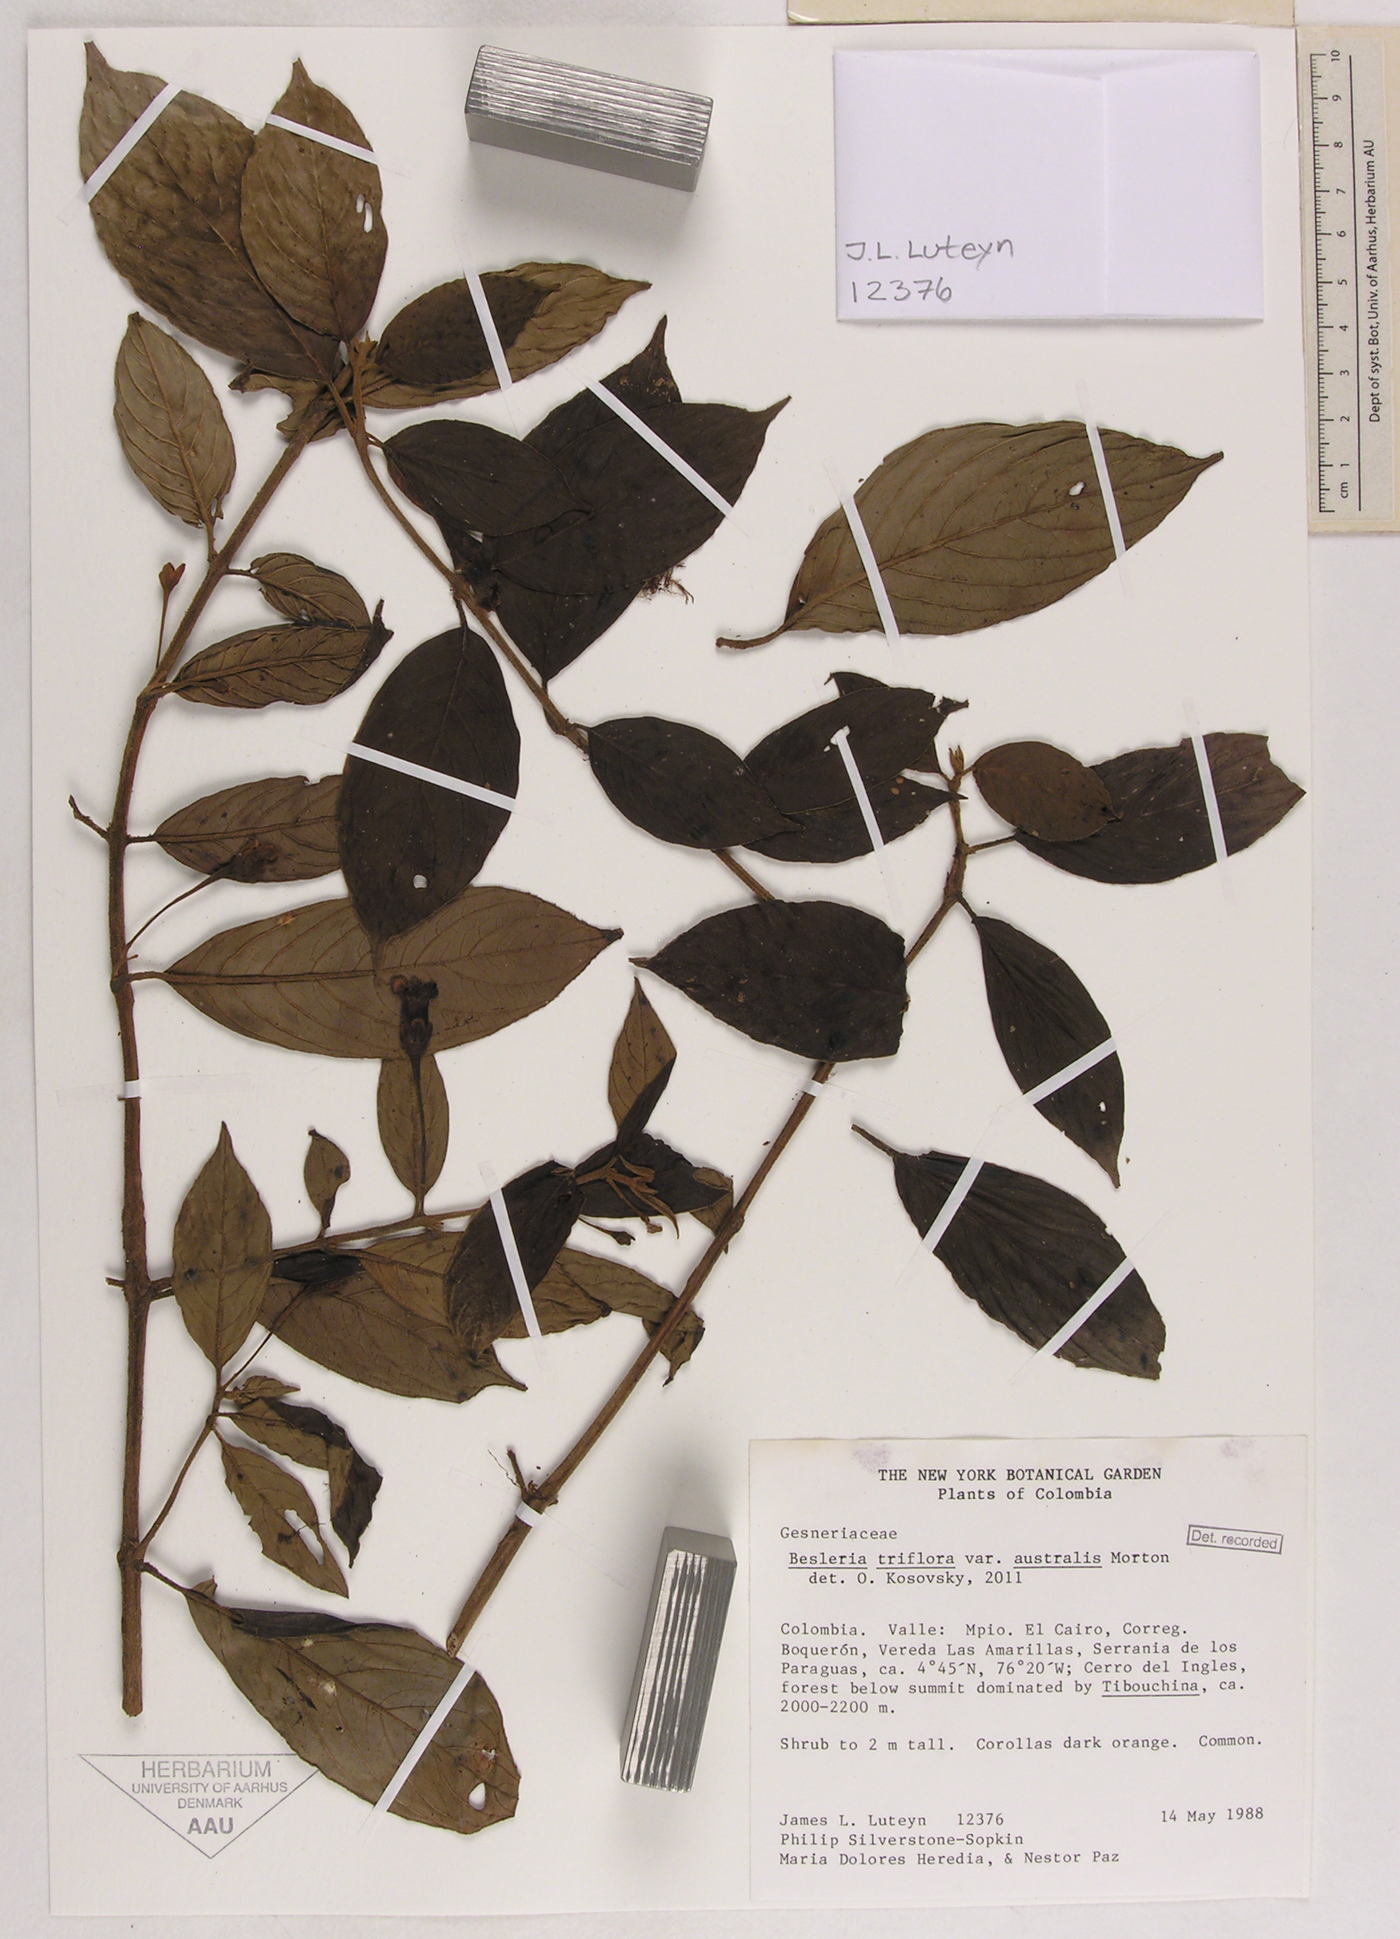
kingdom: Plantae
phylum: Tracheophyta
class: Magnoliopsida
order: Lamiales
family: Gesneriaceae
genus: Besleria
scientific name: Besleria triflora
